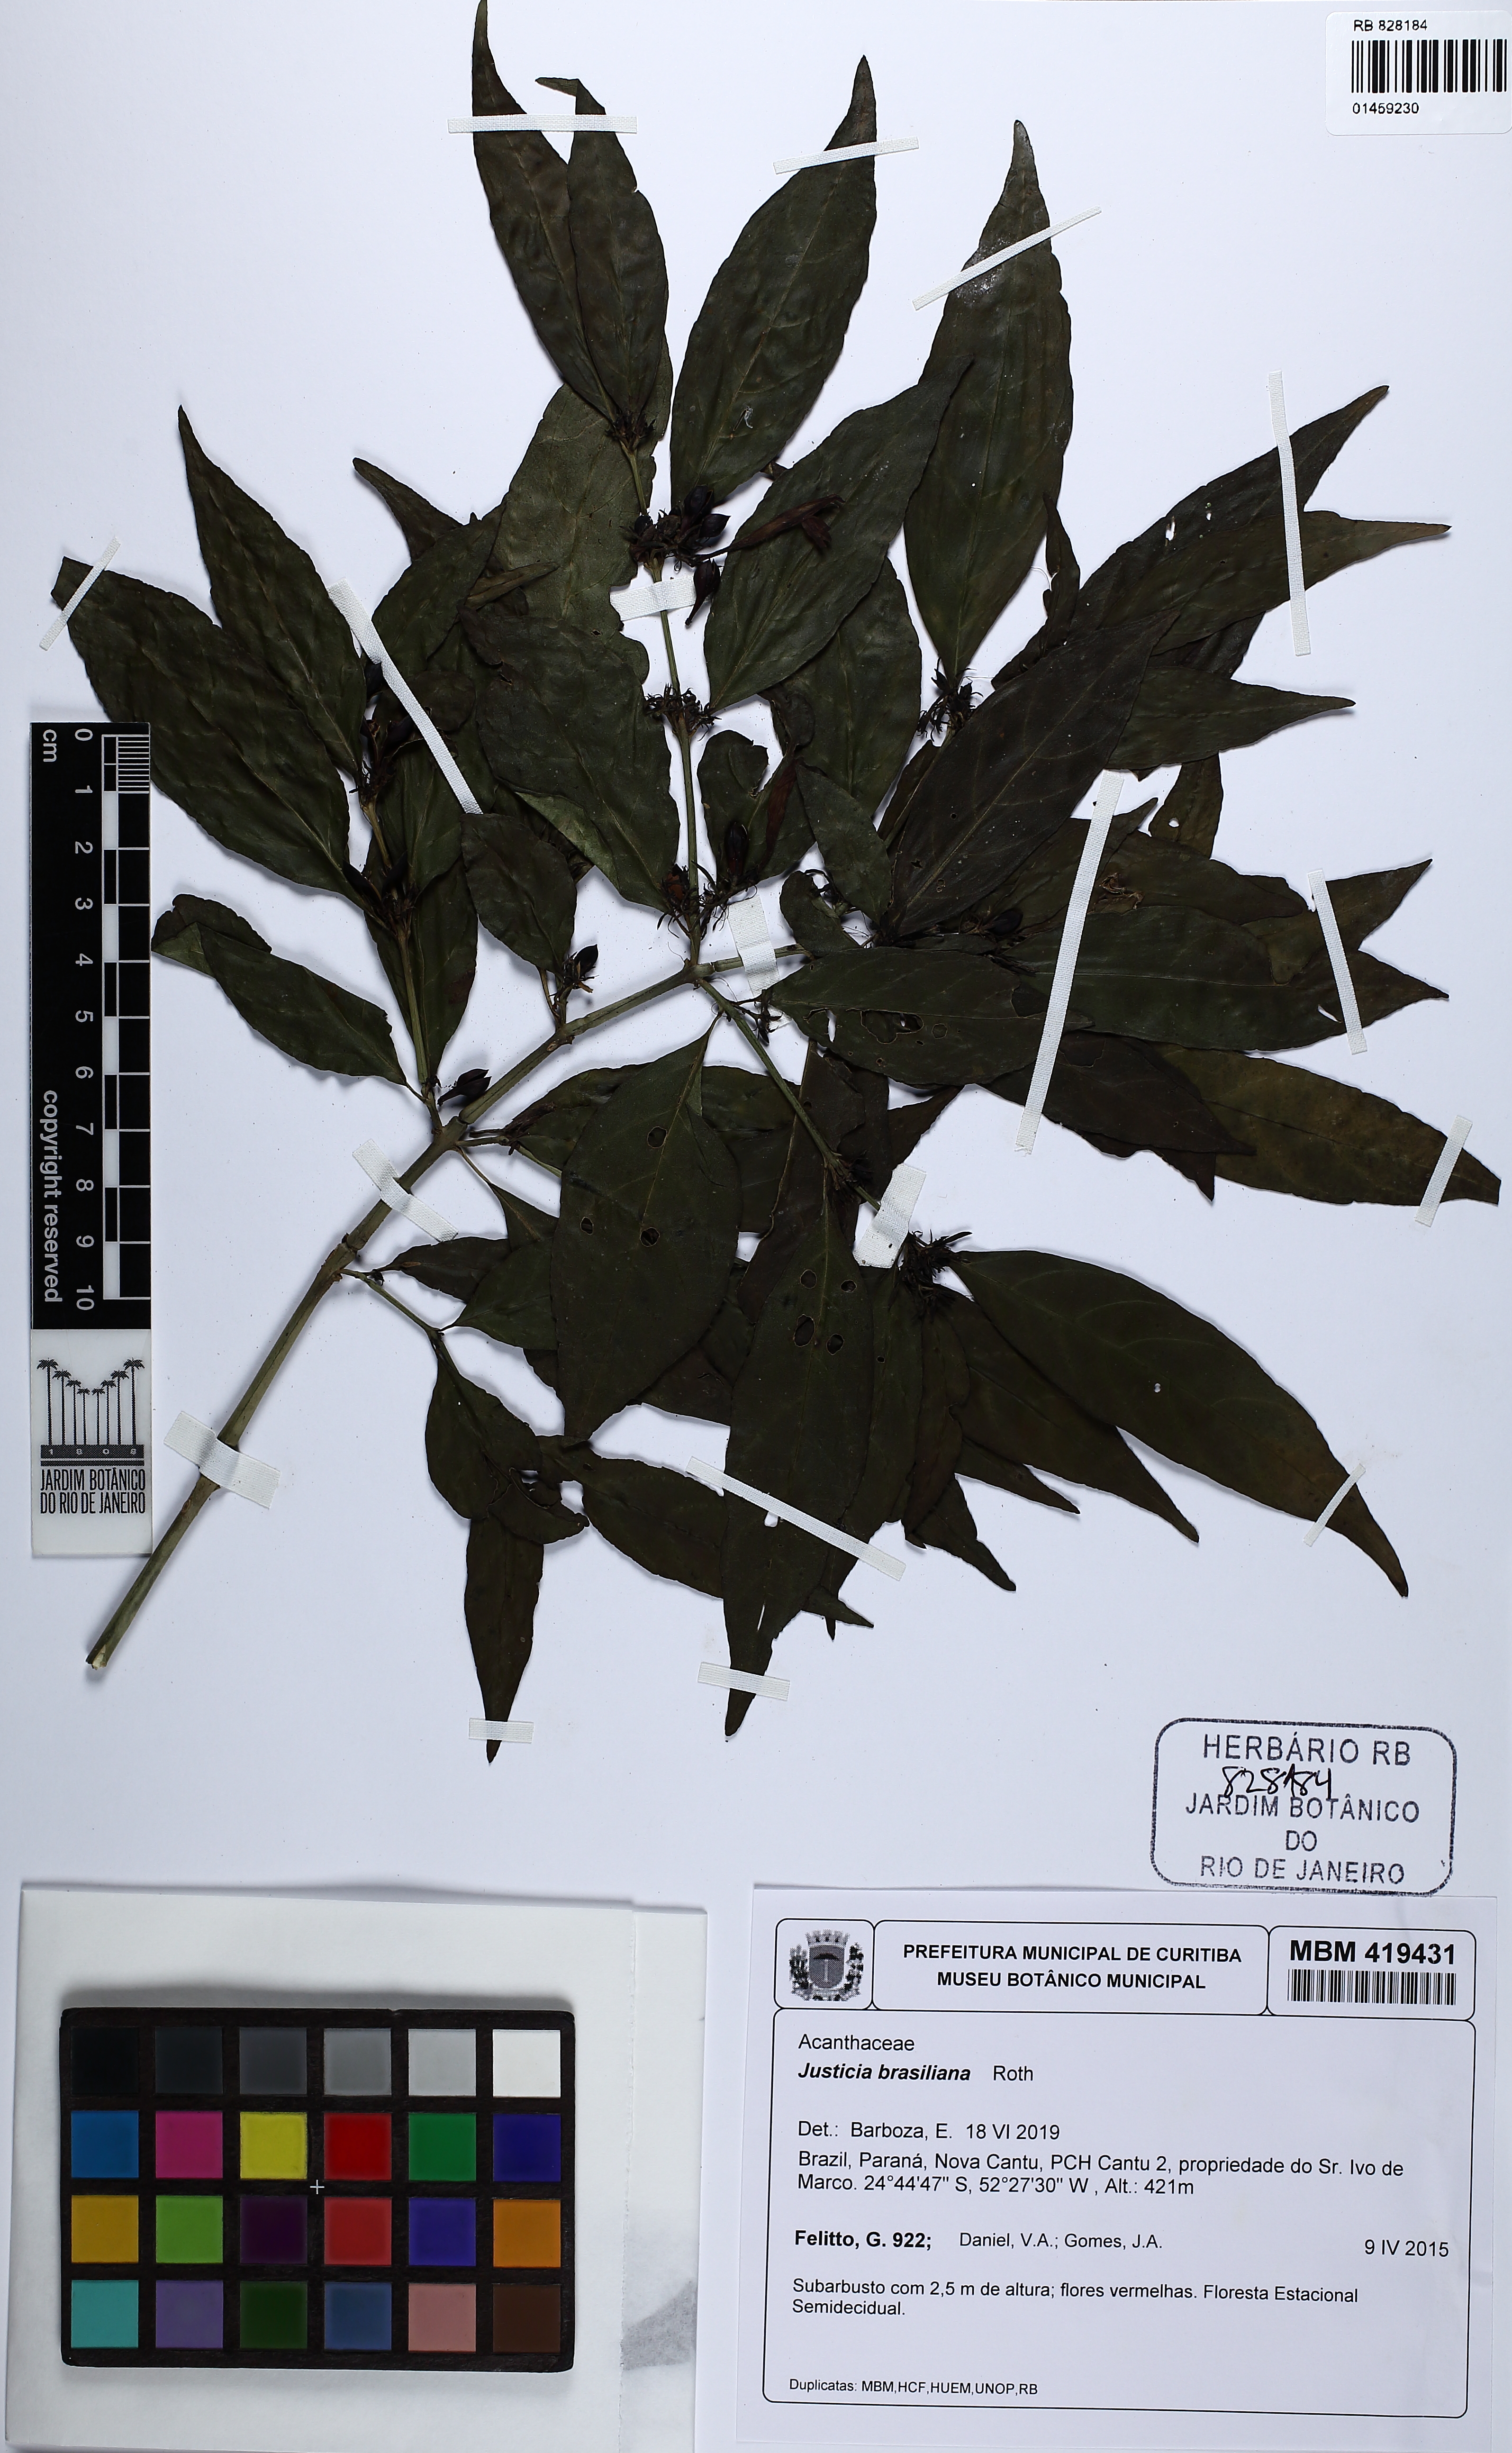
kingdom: Plantae
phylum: Tracheophyta
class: Magnoliopsida
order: Lamiales
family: Acanthaceae
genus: Justicia
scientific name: Justicia brasiliana
